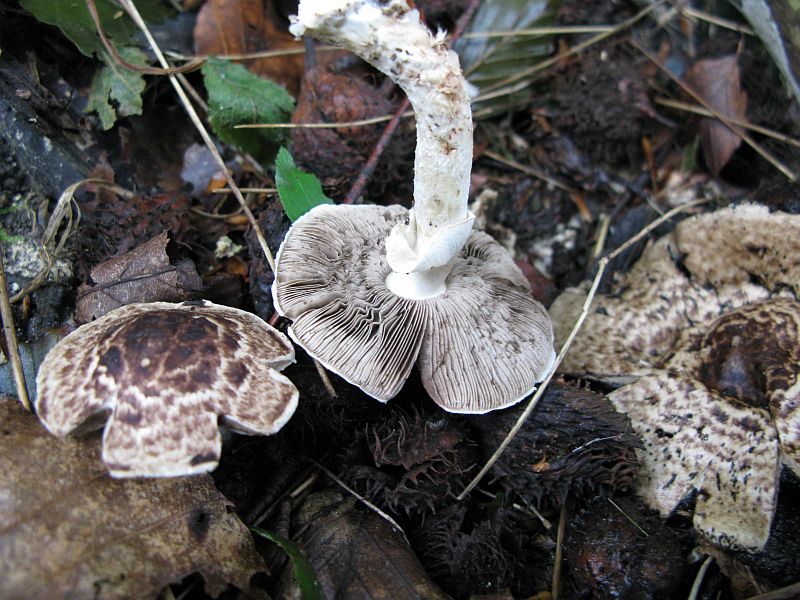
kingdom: Fungi
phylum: Basidiomycota
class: Agaricomycetes
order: Agaricales
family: Agaricaceae
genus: Agaricus
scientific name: Agaricus impudicus
